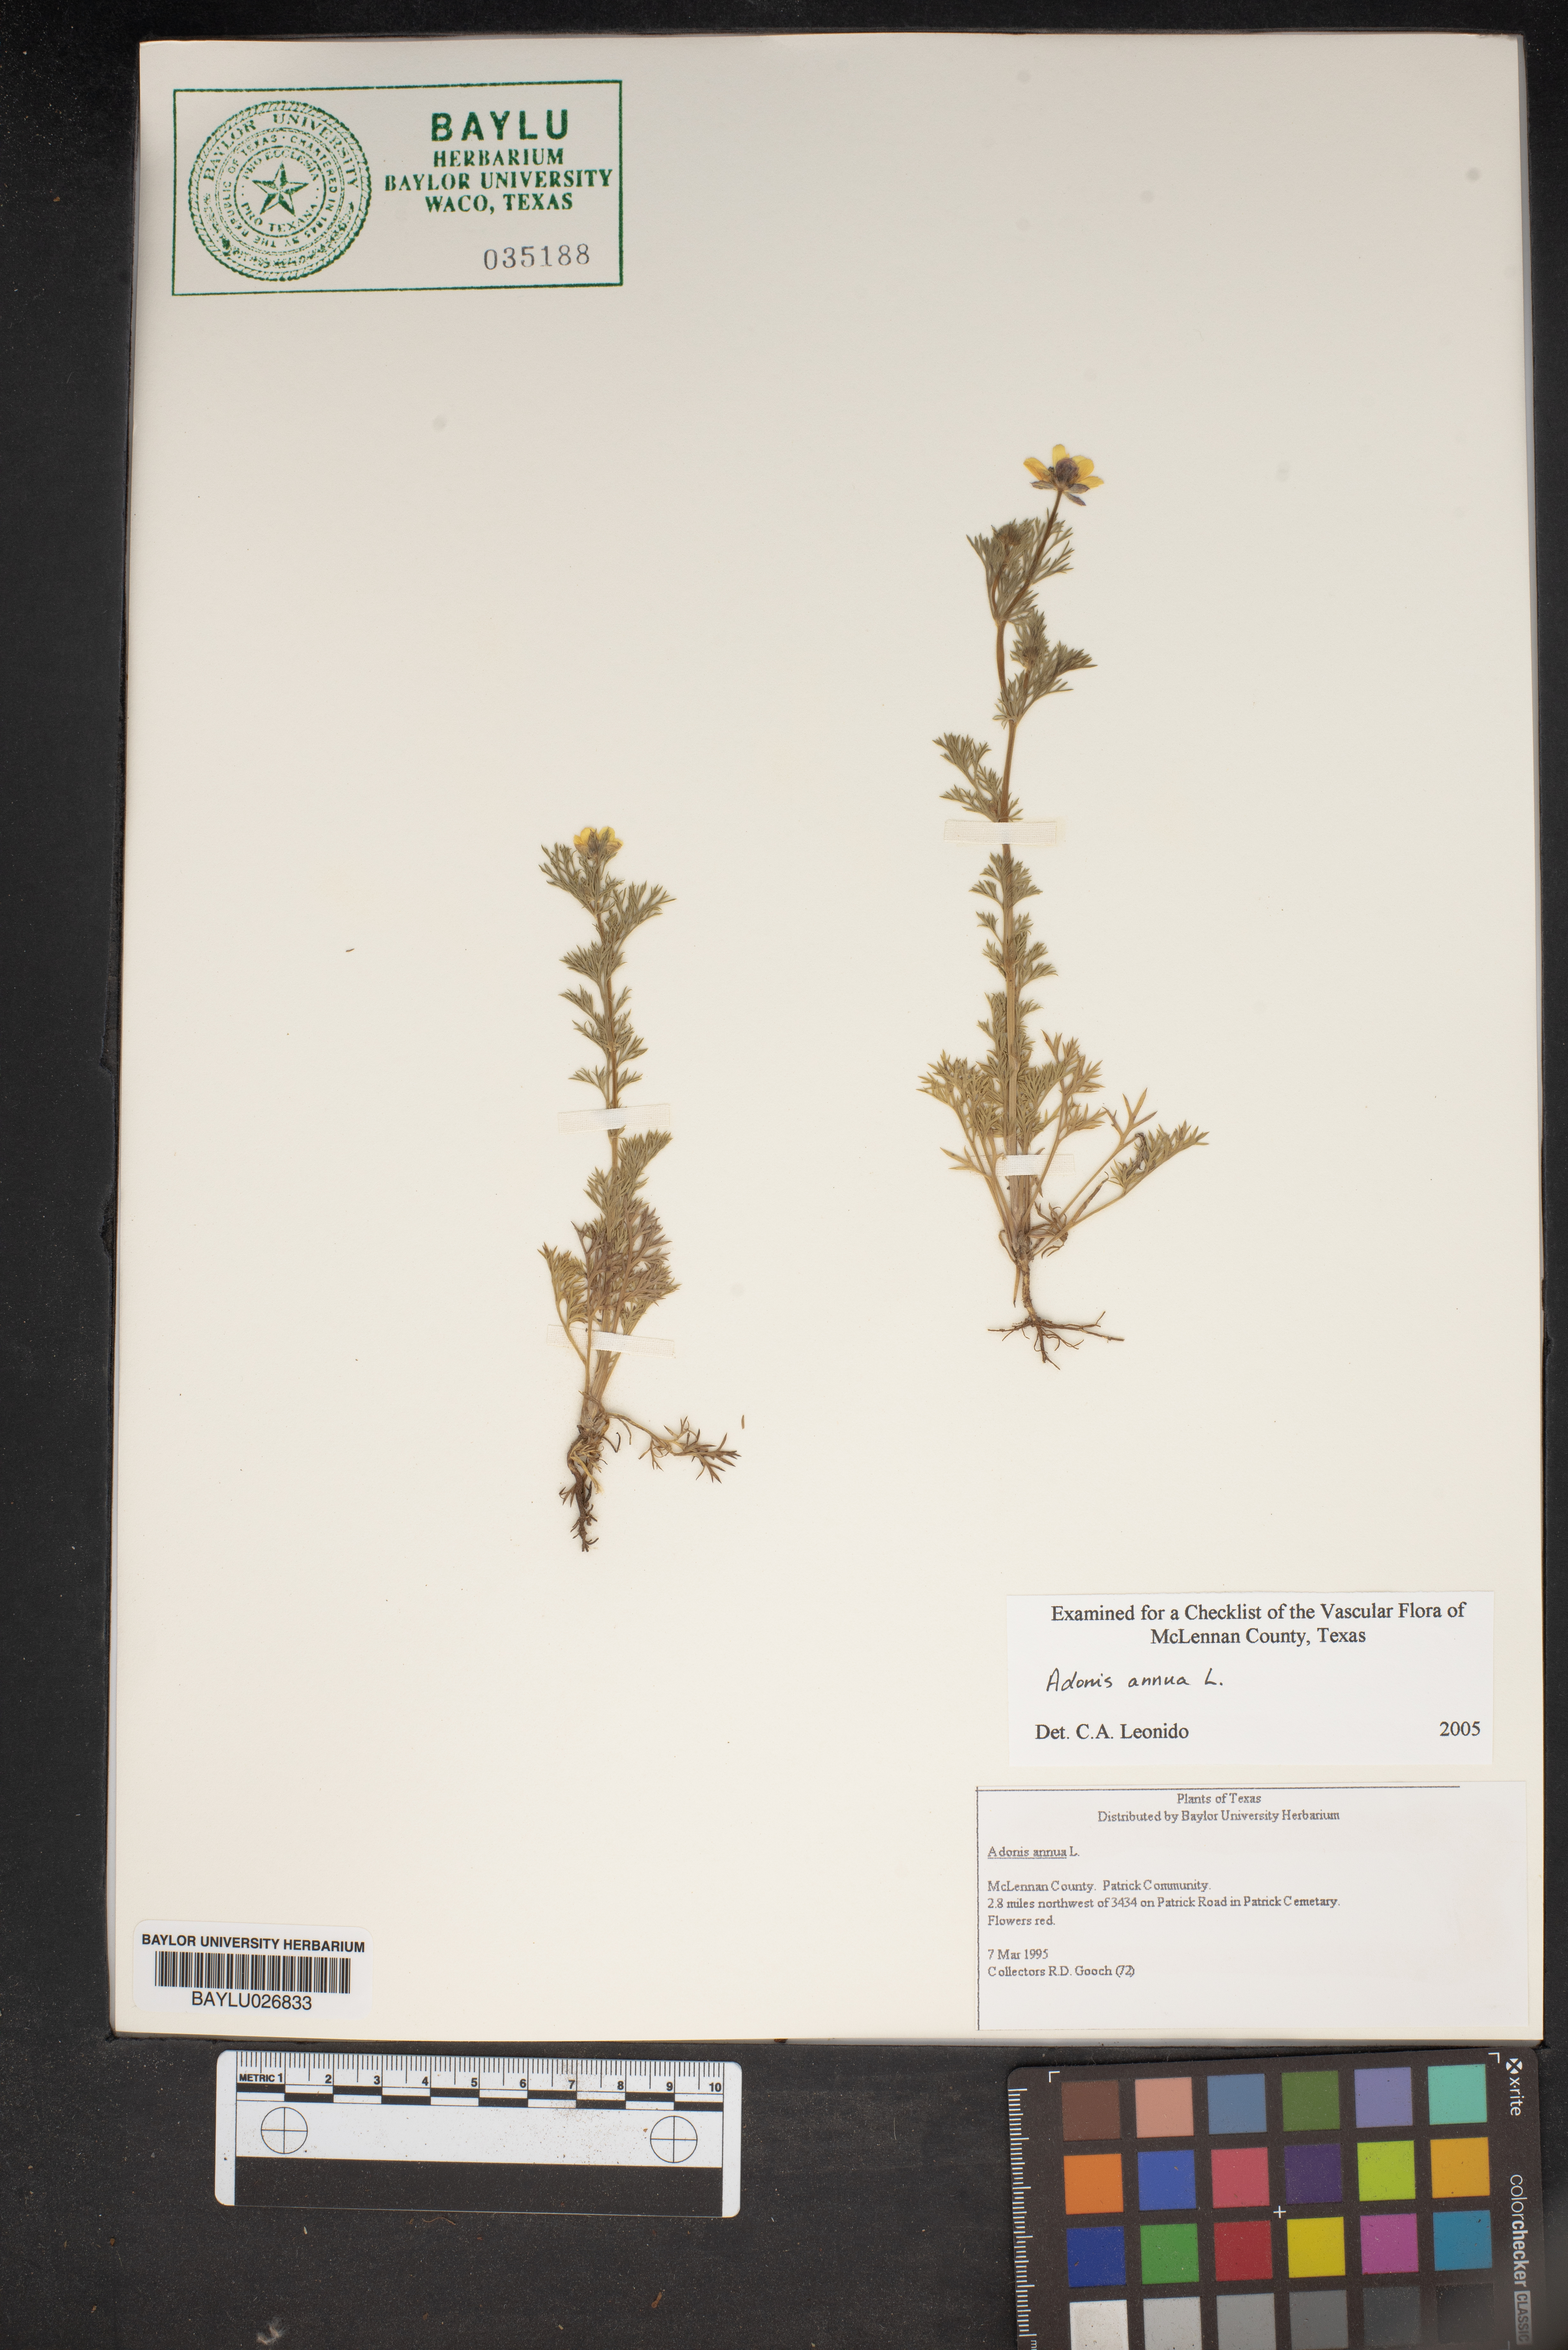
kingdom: Plantae
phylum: Tracheophyta
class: Magnoliopsida
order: Ranunculales
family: Ranunculaceae
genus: Adonis
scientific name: Adonis annua
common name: Pheasant's-eye
